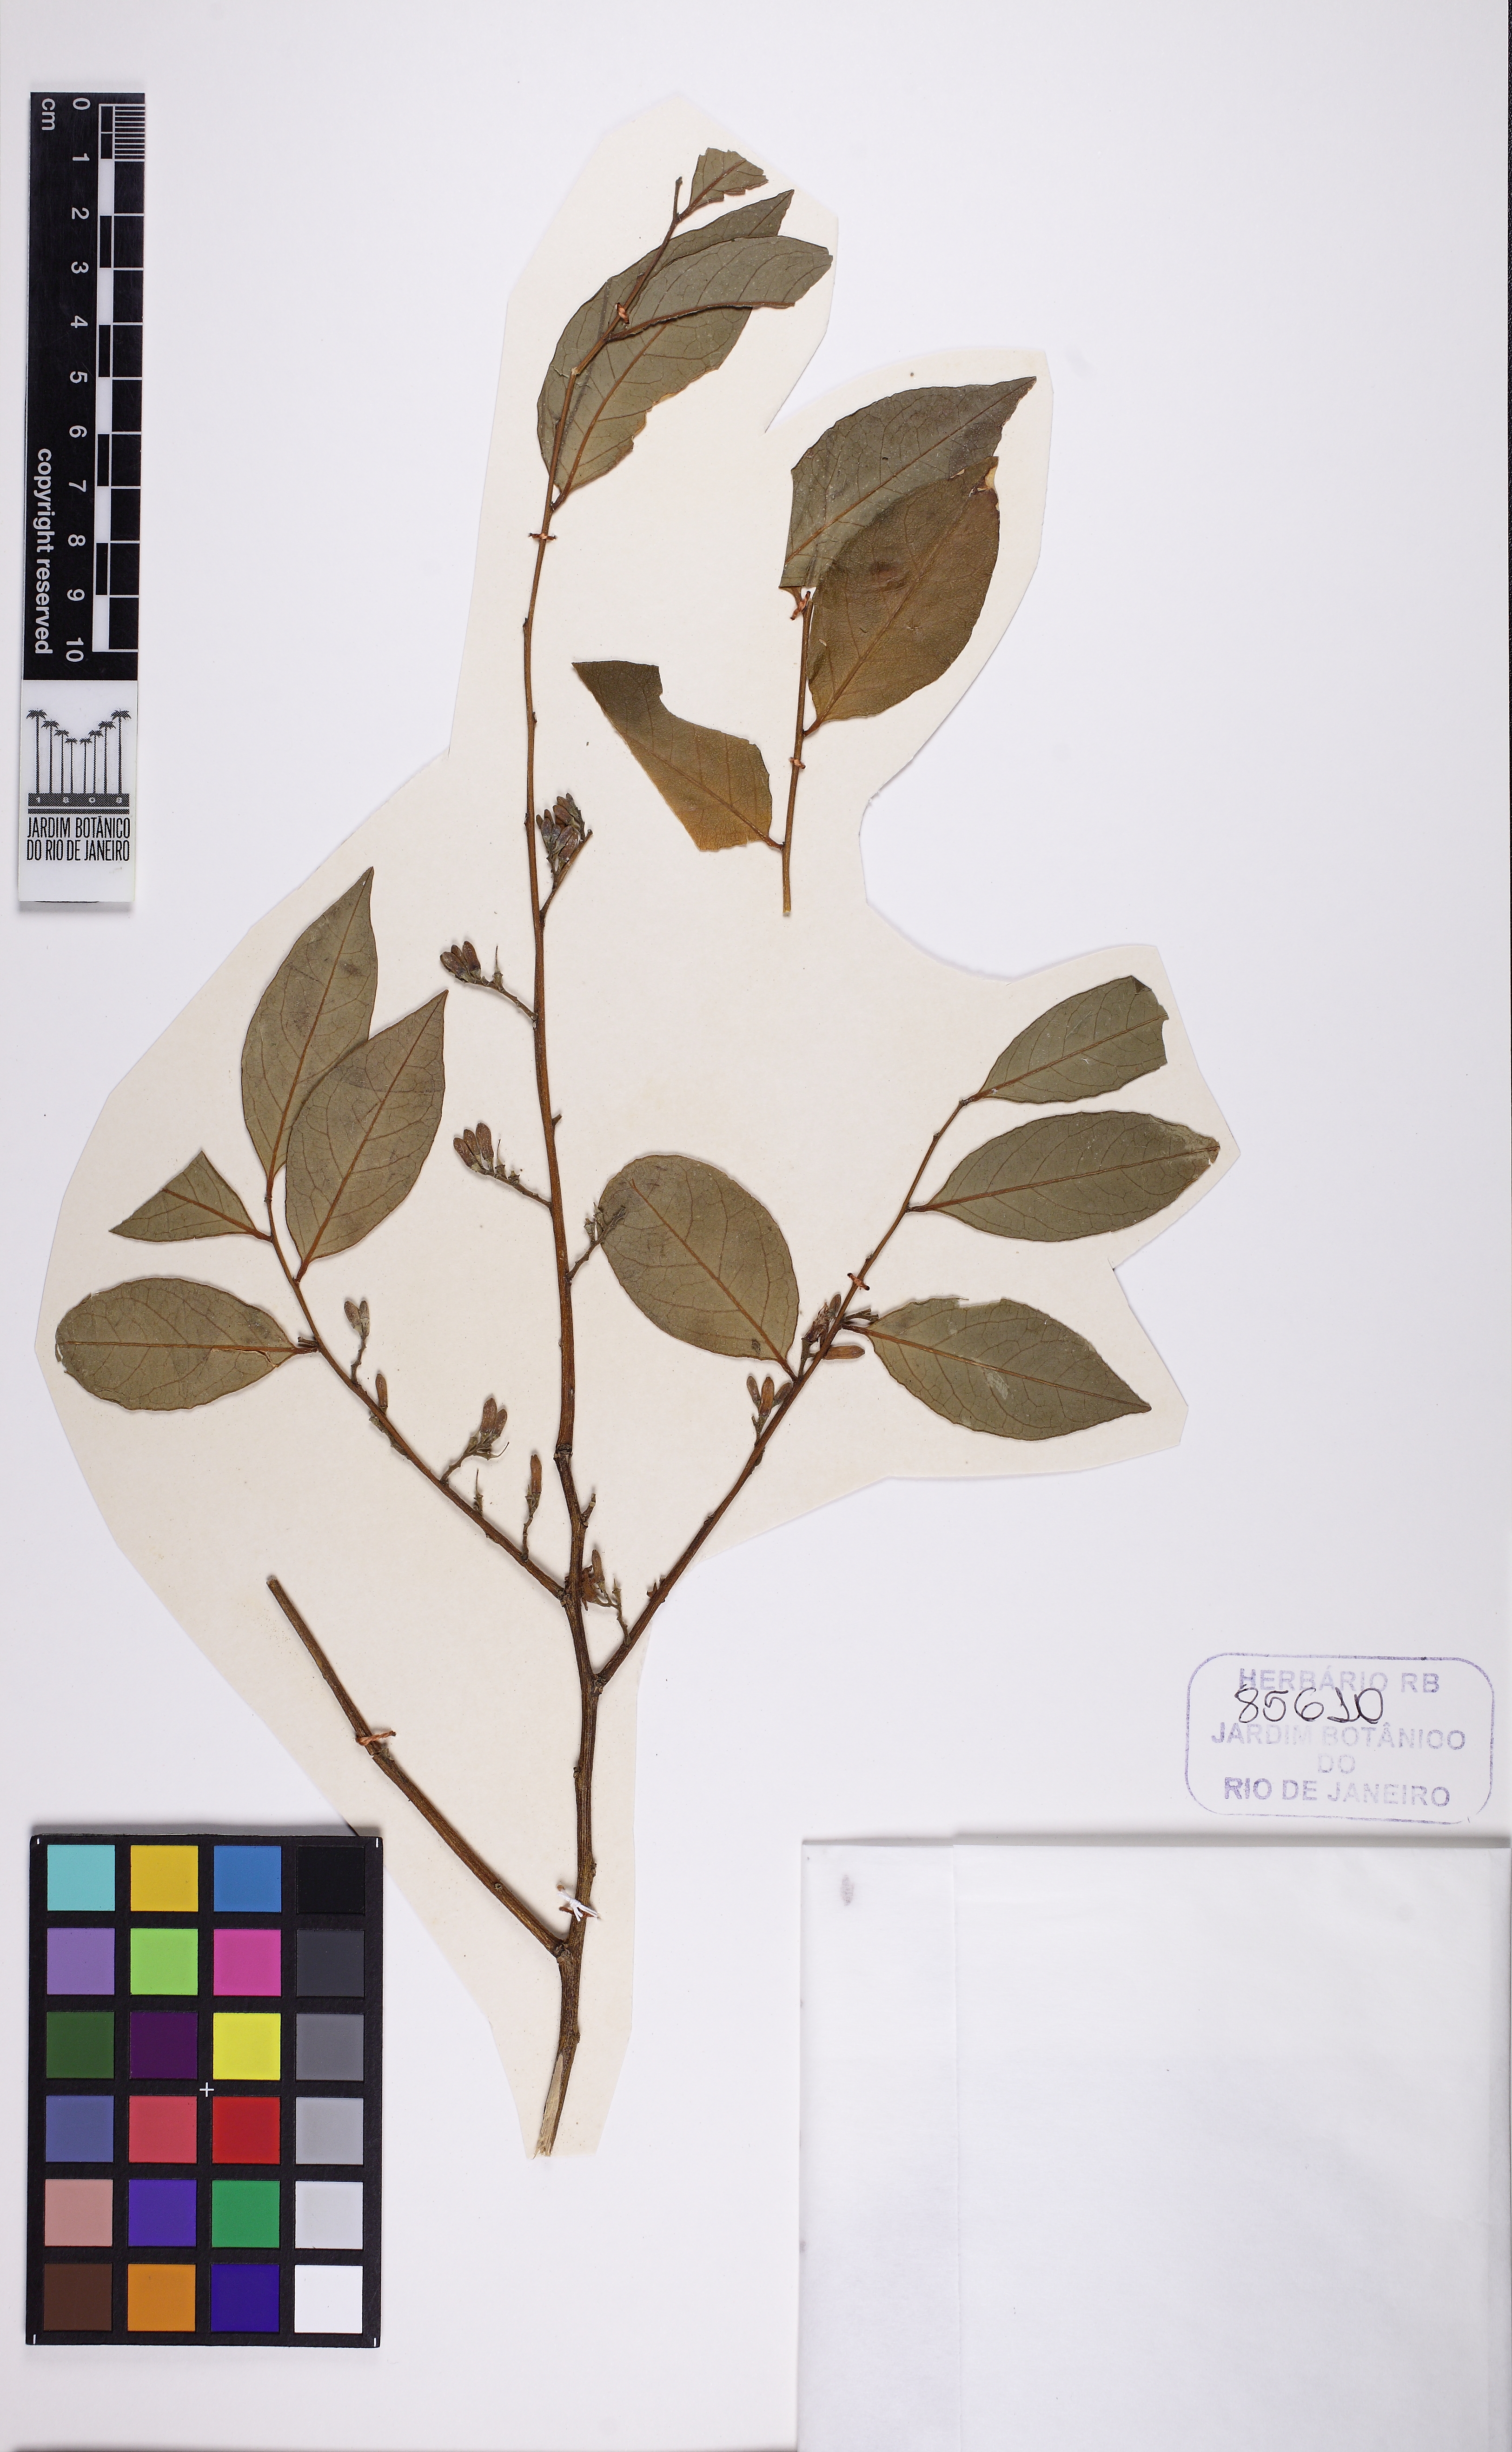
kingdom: Plantae
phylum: Tracheophyta
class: Magnoliopsida
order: Santalales
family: Olacaceae
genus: Dulacia
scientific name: Dulacia egleri
